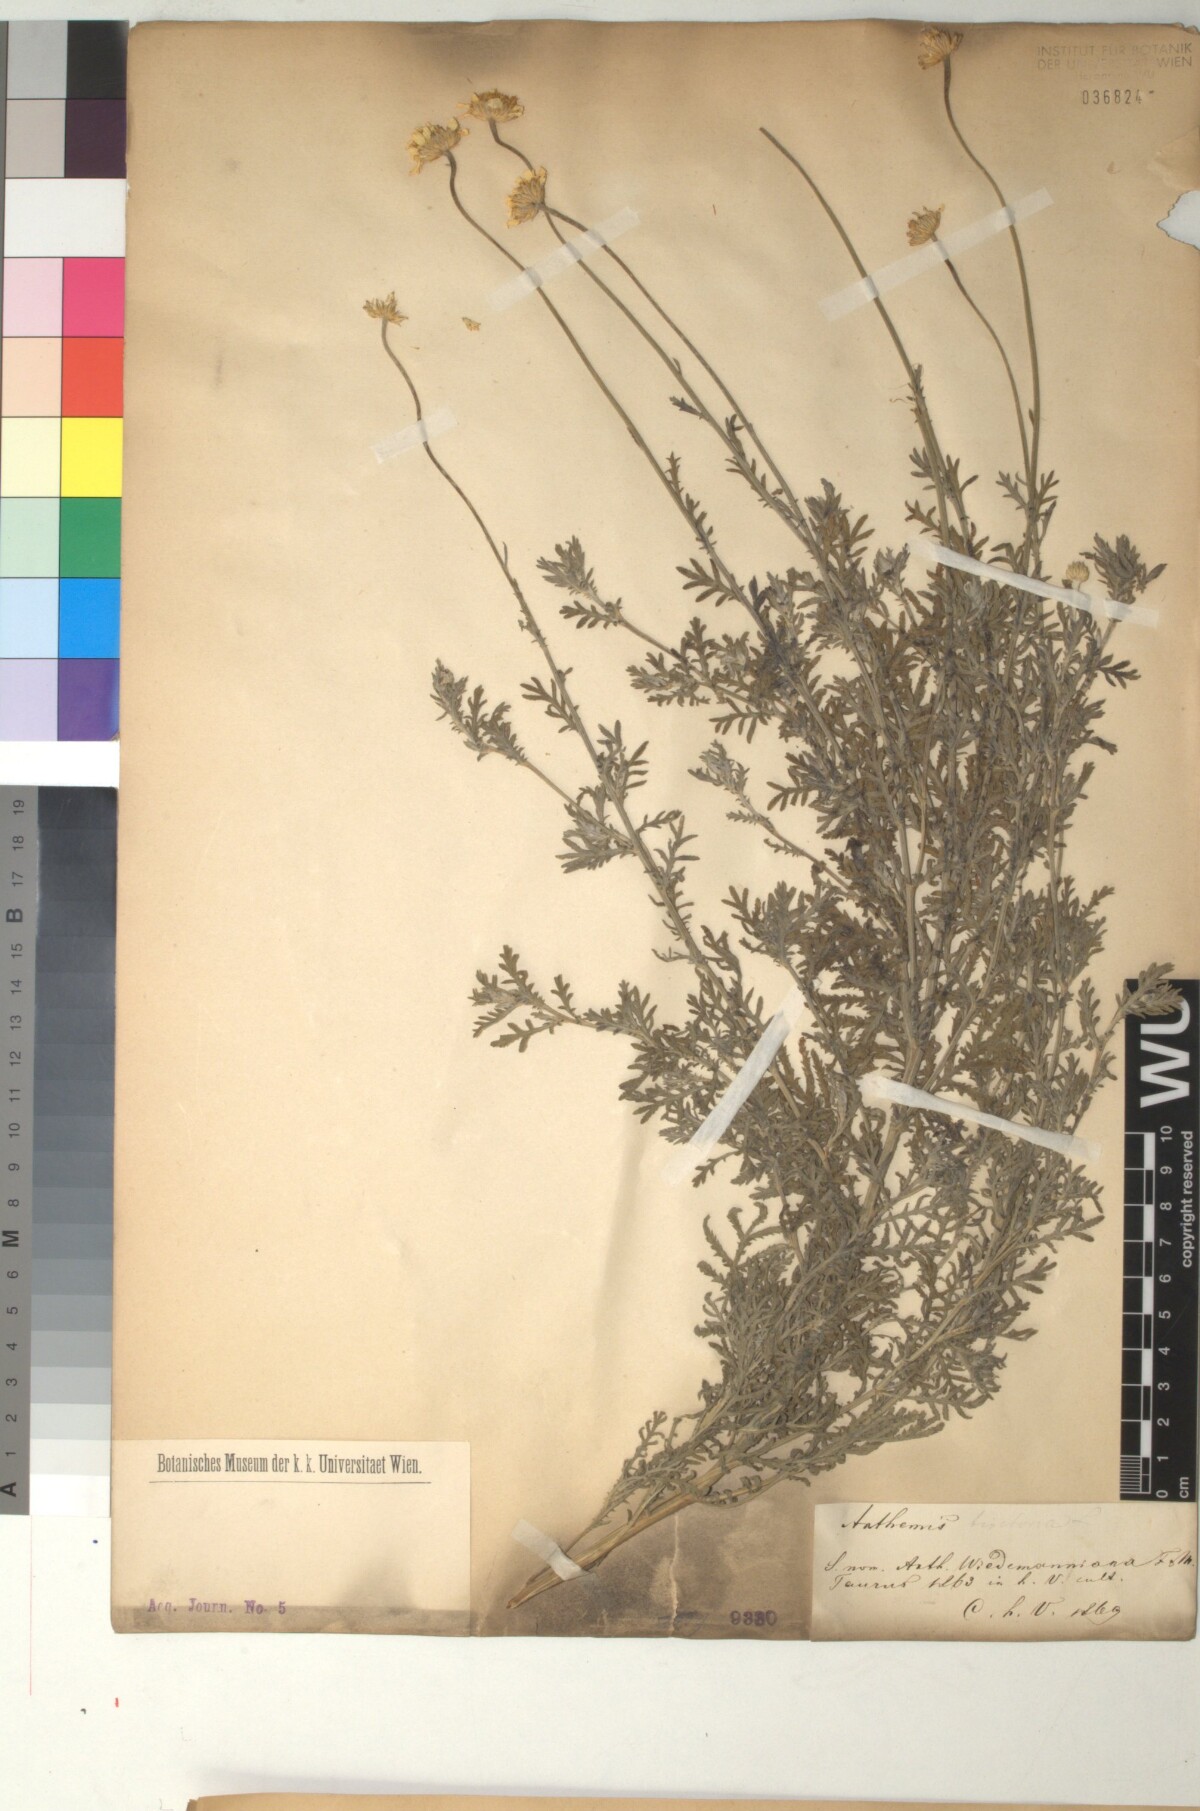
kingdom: Plantae
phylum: Tracheophyta
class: Magnoliopsida
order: Asterales
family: Asteraceae
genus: Cota
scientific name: Cota tinctoria
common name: Golden chamomile
